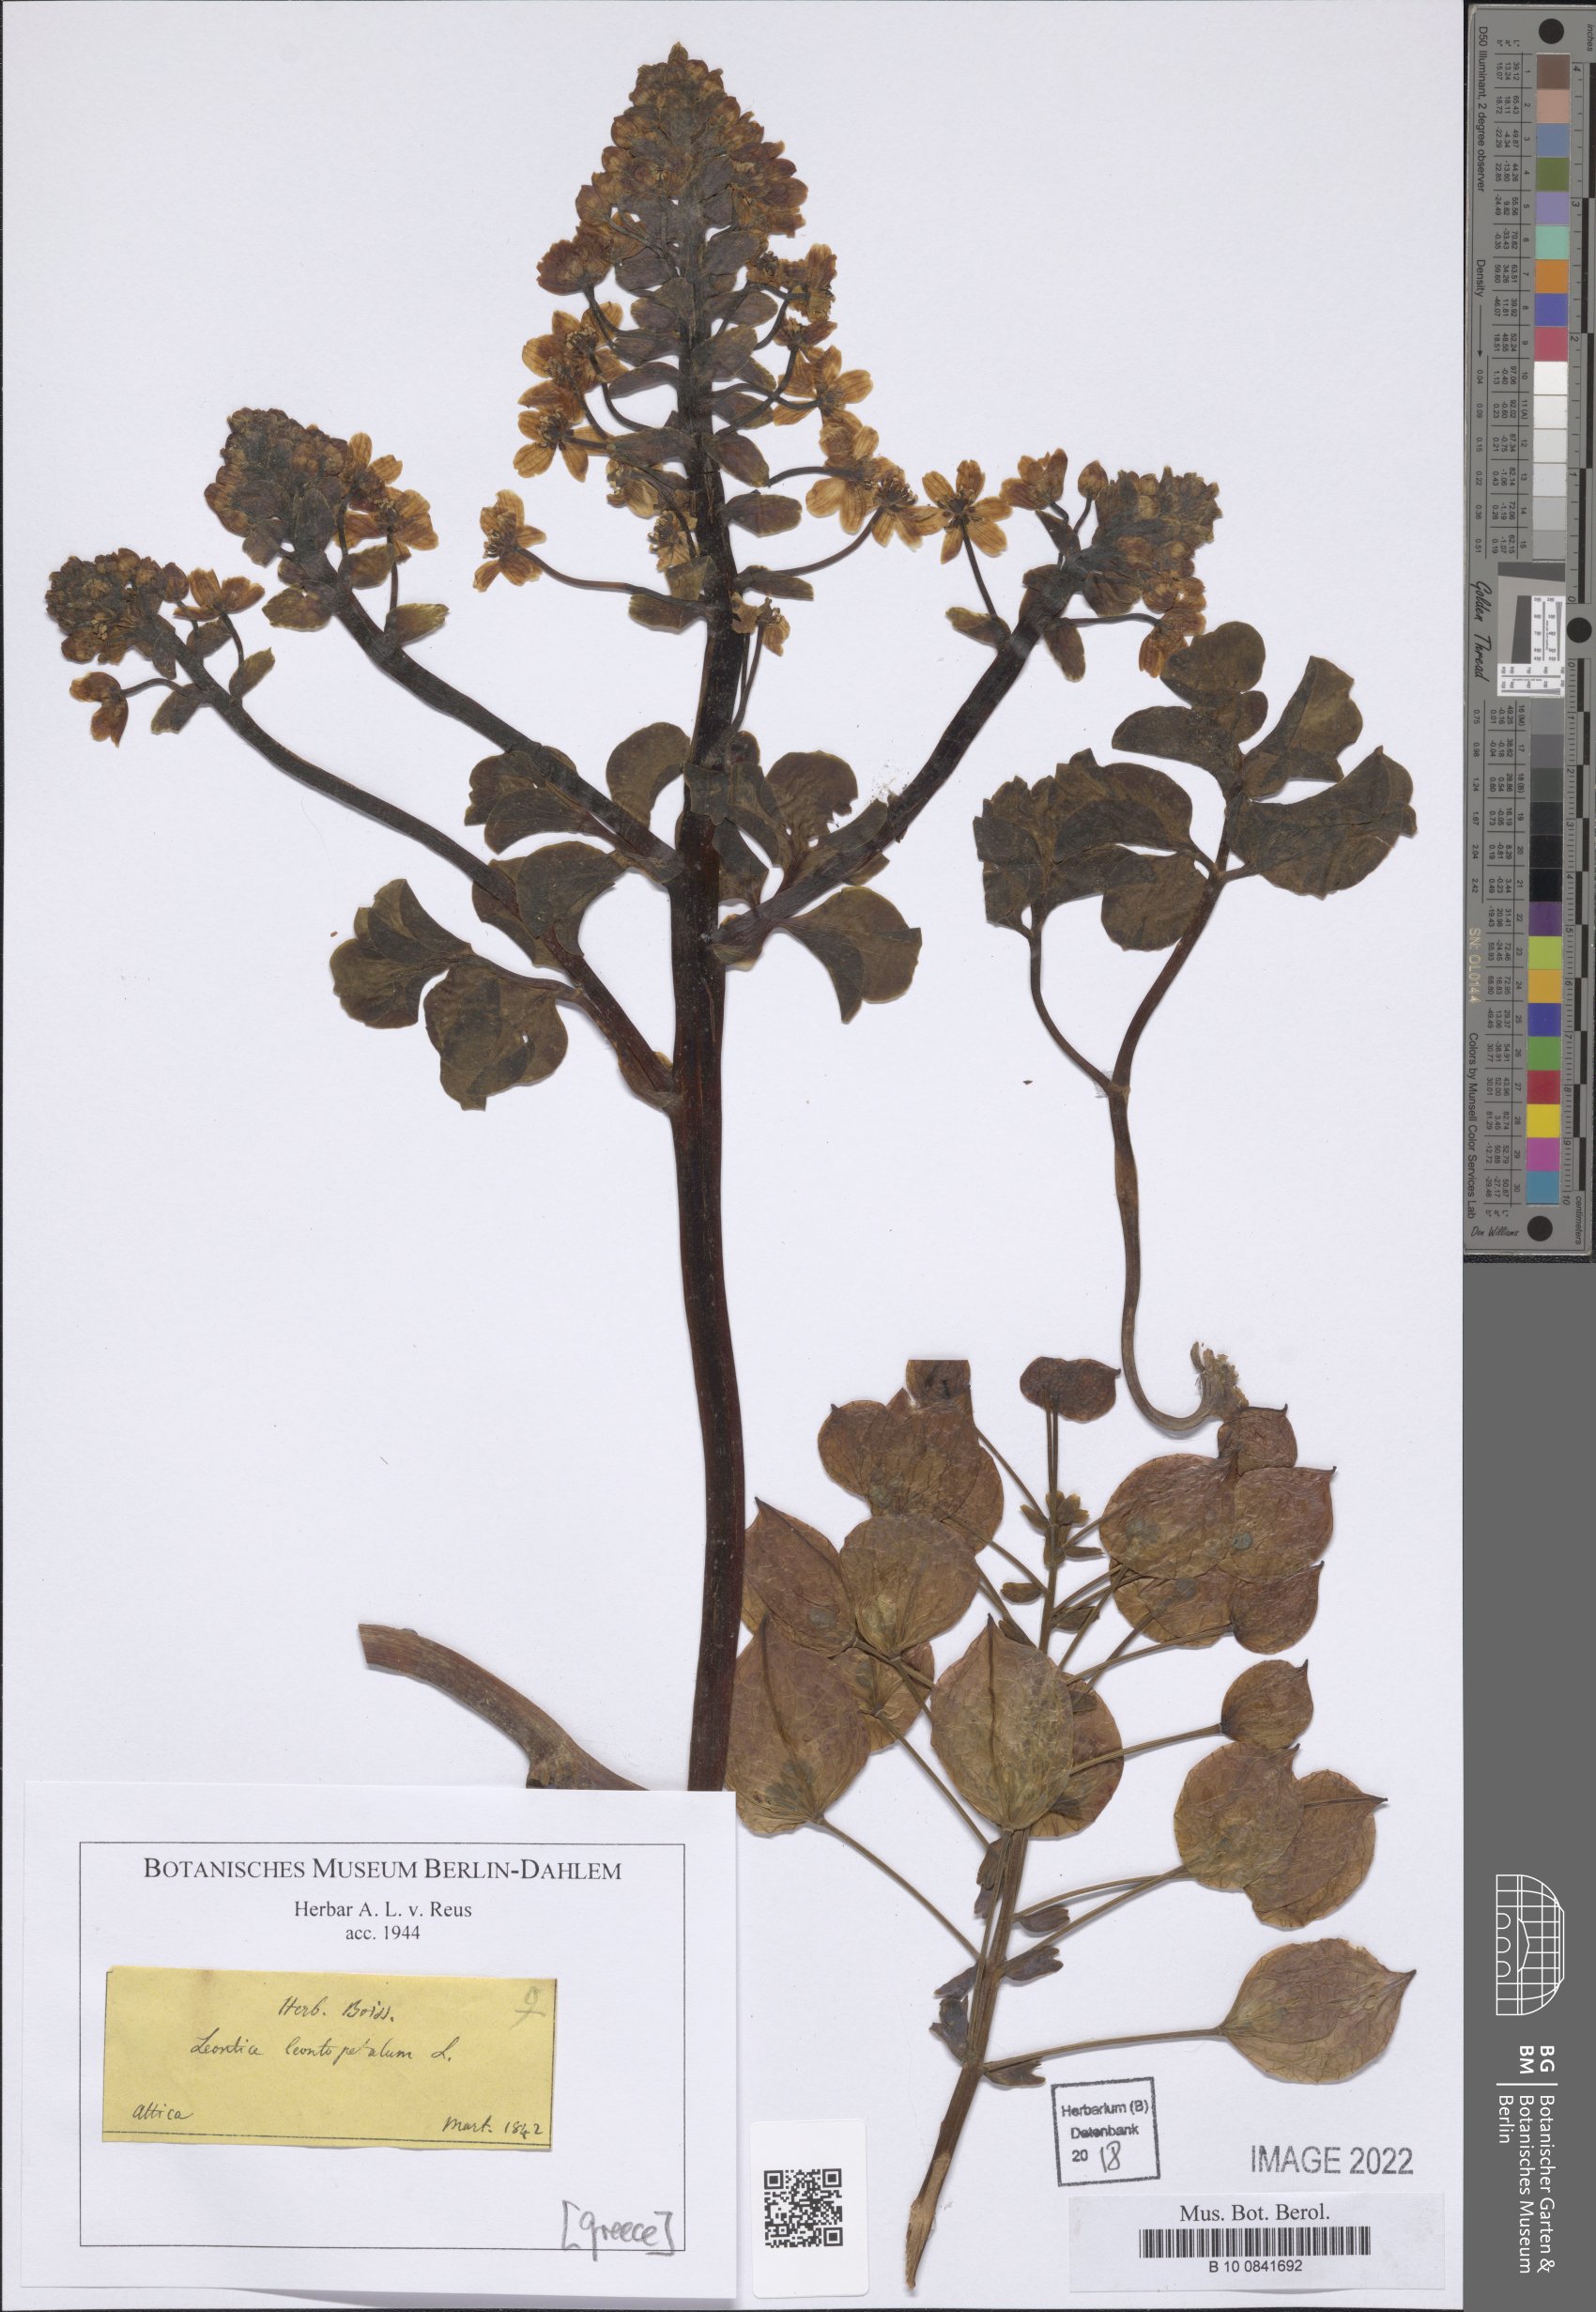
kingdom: Plantae
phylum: Tracheophyta
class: Magnoliopsida
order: Ranunculales
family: Berberidaceae
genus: Leontice
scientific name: Leontice leontopetalum
